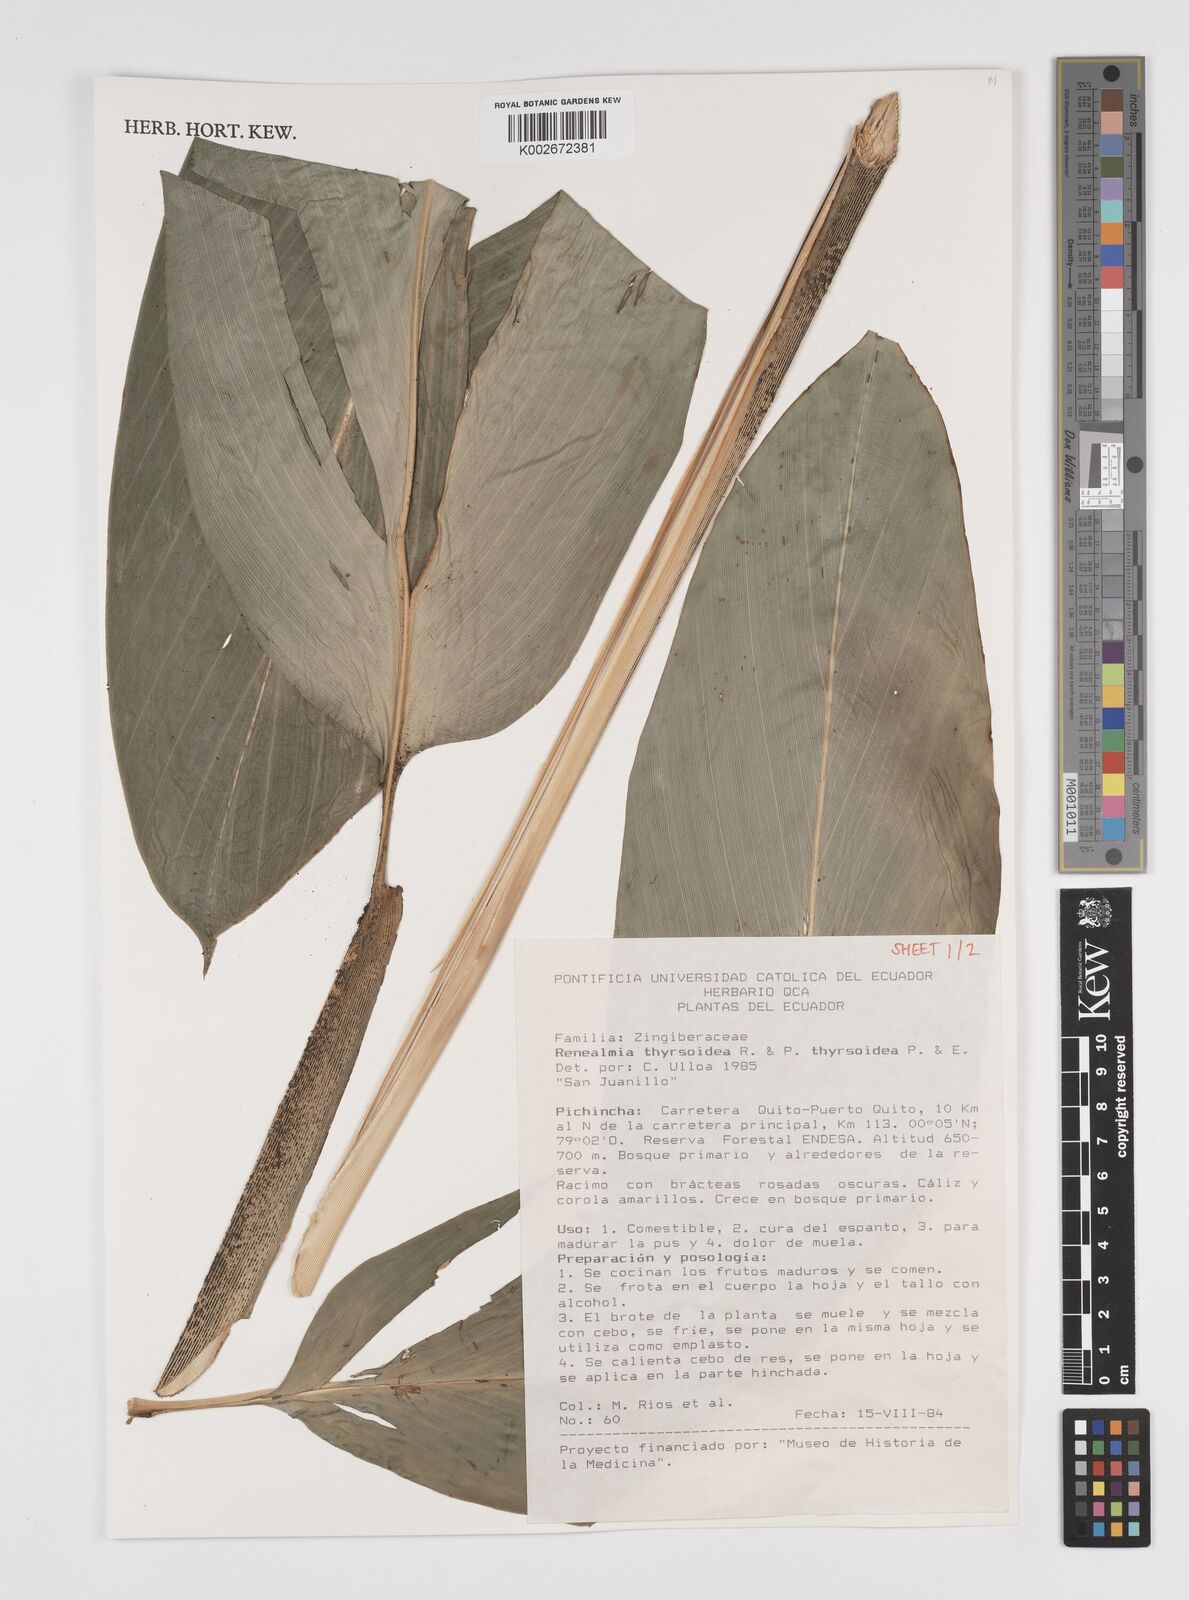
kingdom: Plantae
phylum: Tracheophyta
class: Liliopsida
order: Zingiberales
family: Zingiberaceae
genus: Renealmia
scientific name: Renealmia thyrsoidea
